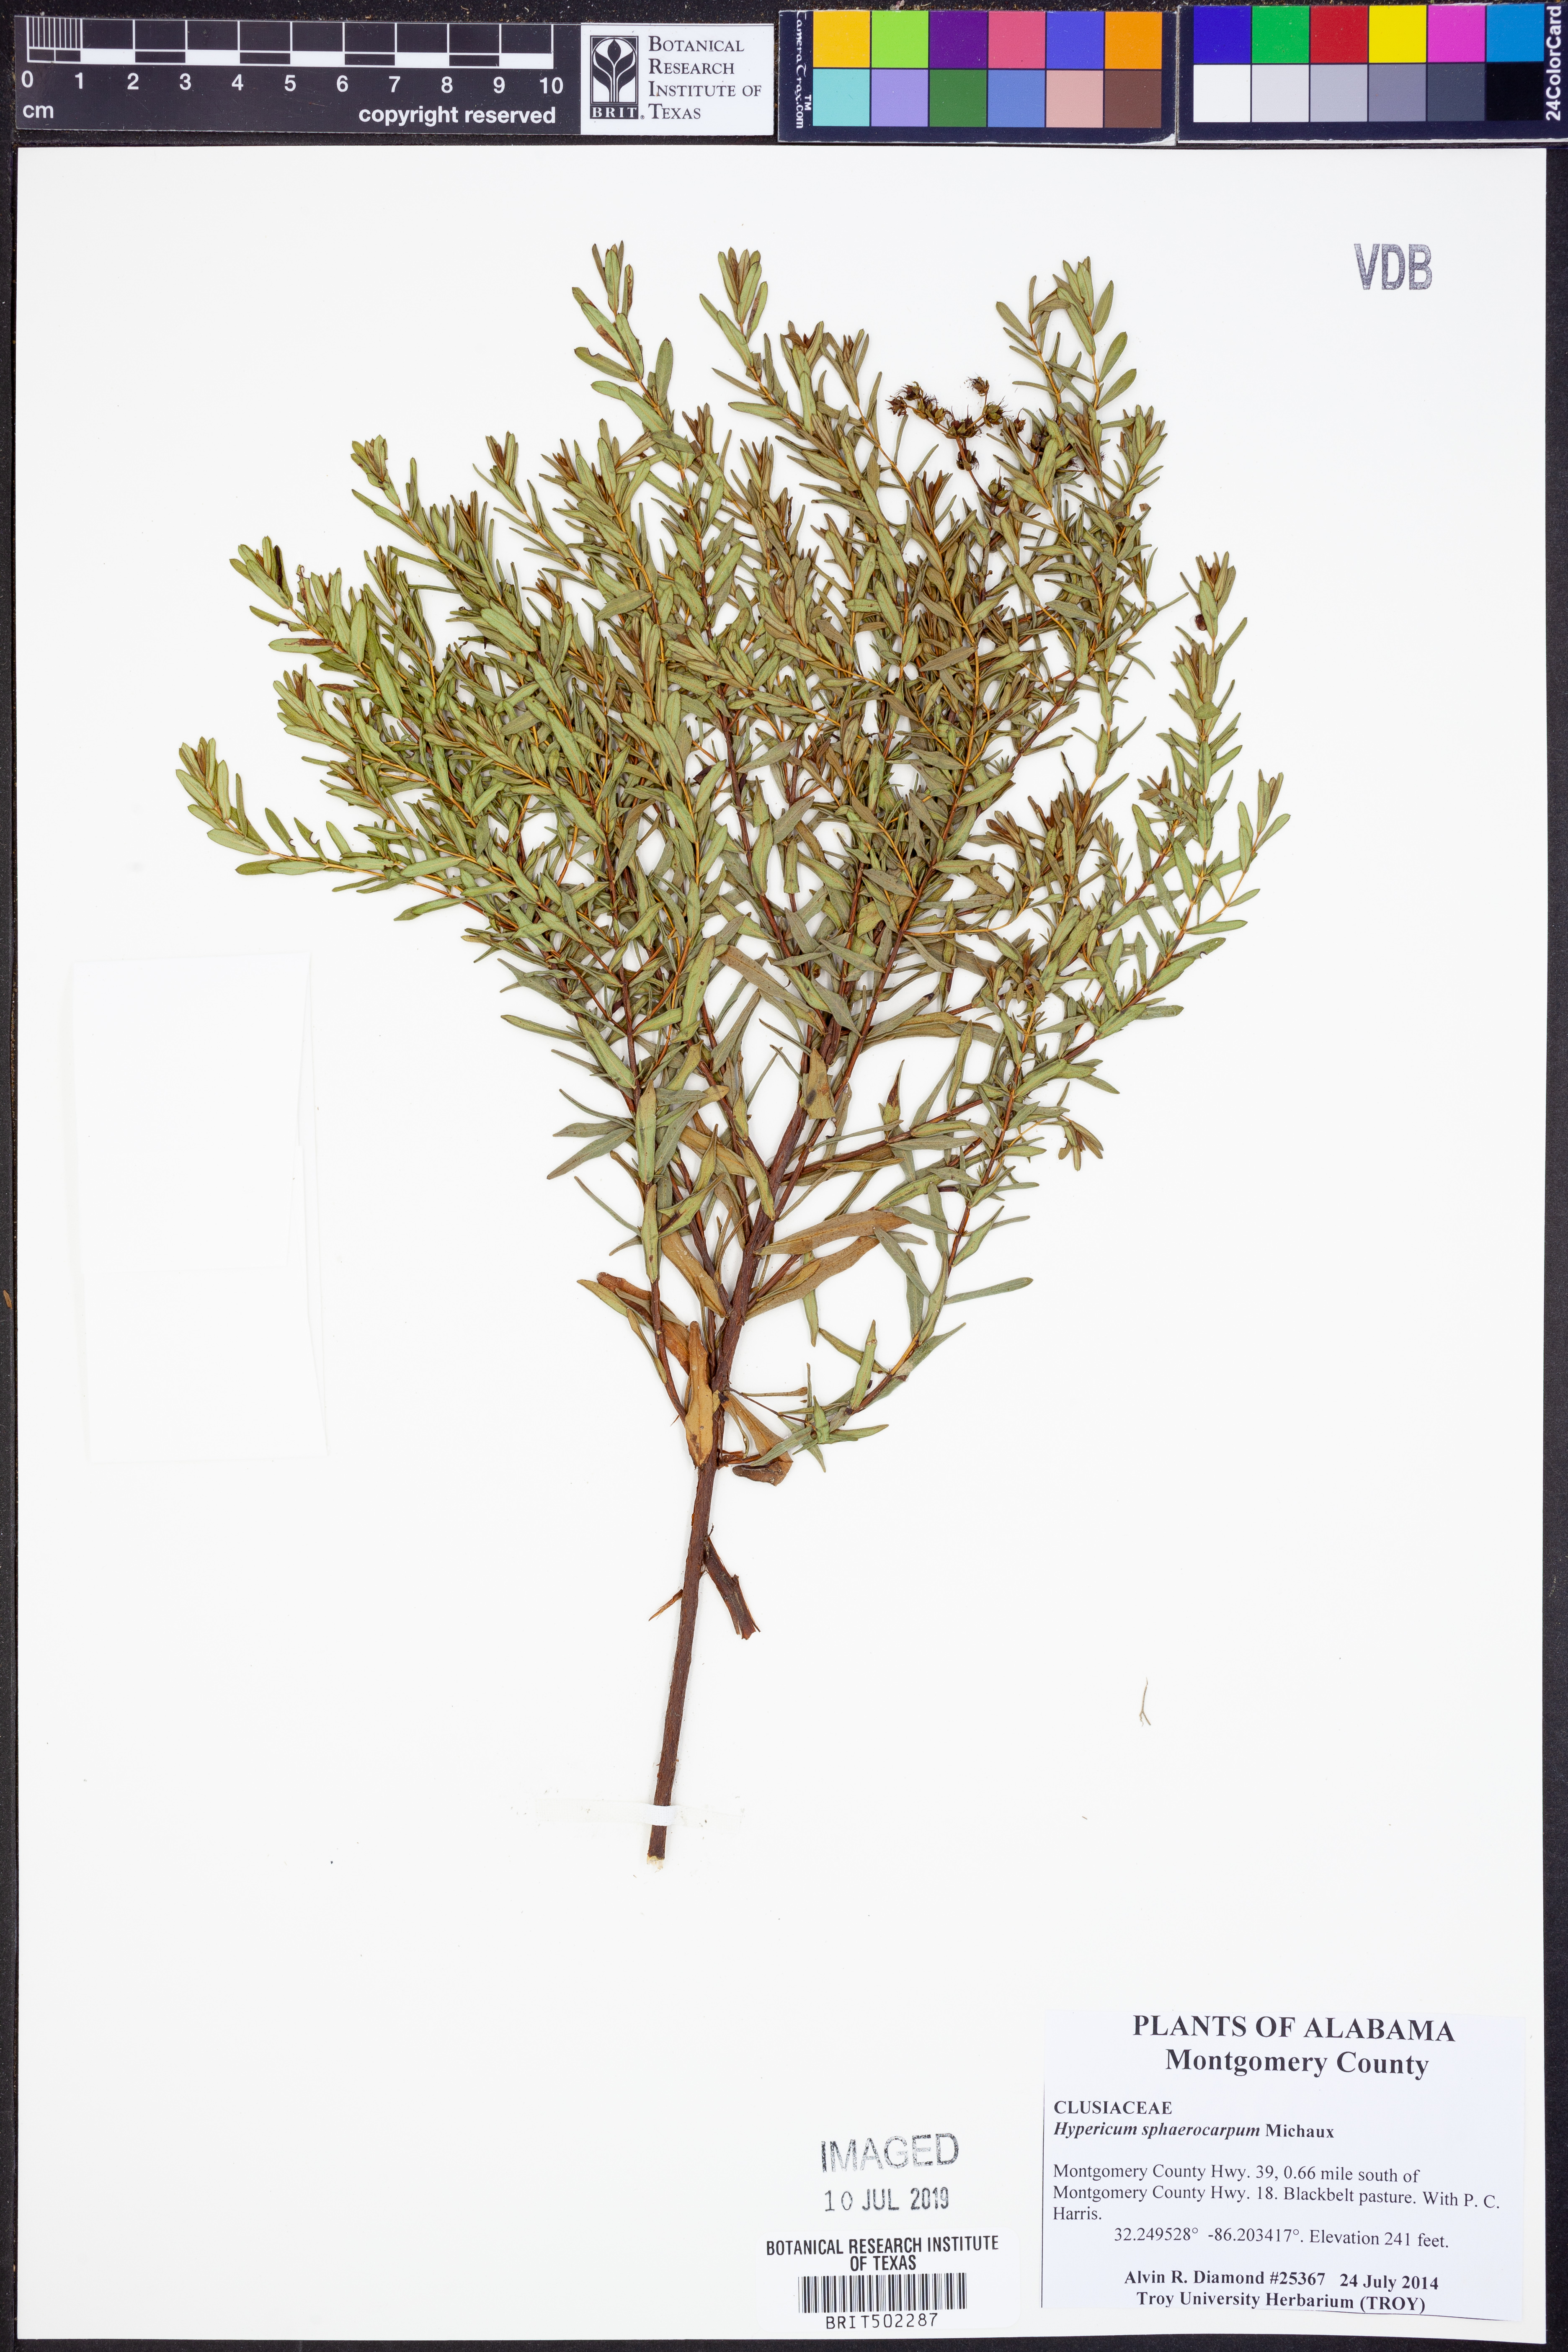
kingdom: Plantae
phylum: Tracheophyta
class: Magnoliopsida
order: Malpighiales
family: Hypericaceae
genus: Hypericum
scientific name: Hypericum sphaerocarpum
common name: Round-fruited st. john's-wort
